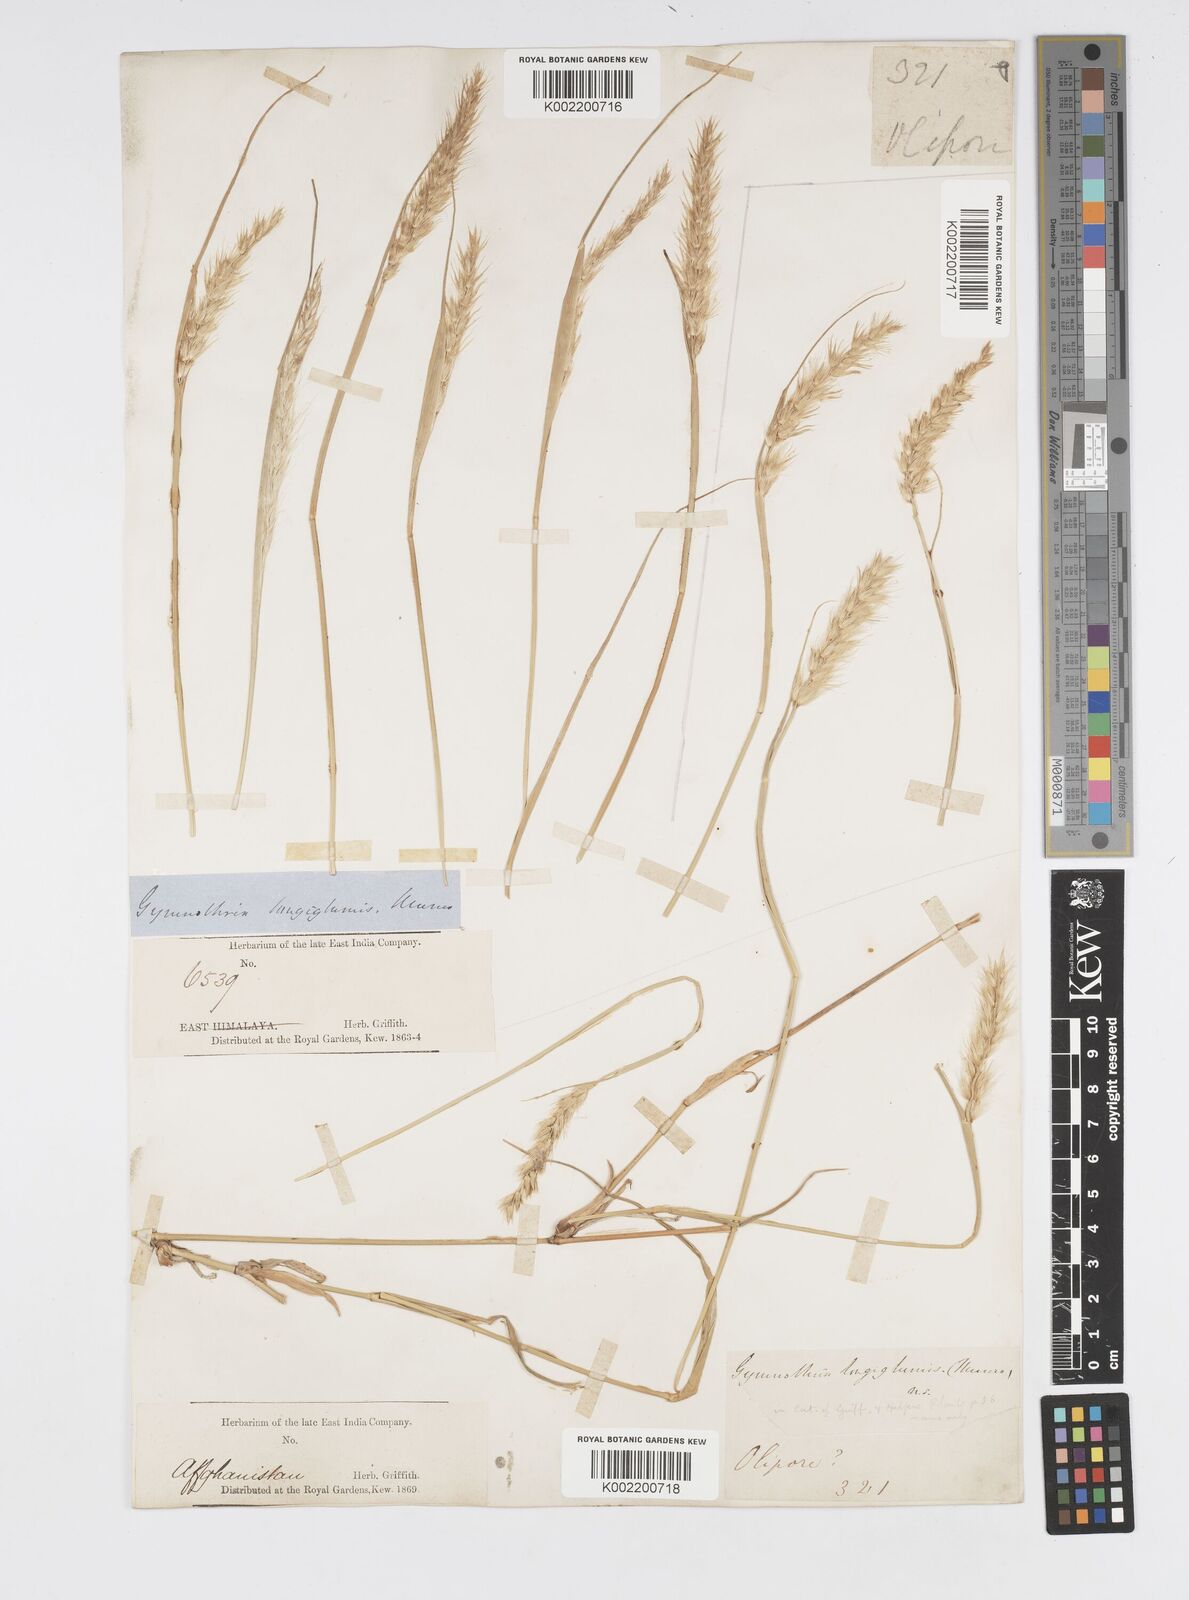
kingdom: Plantae
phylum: Tracheophyta
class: Liliopsida
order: Poales
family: Poaceae
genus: Cenchrus
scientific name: Cenchrus divisus
